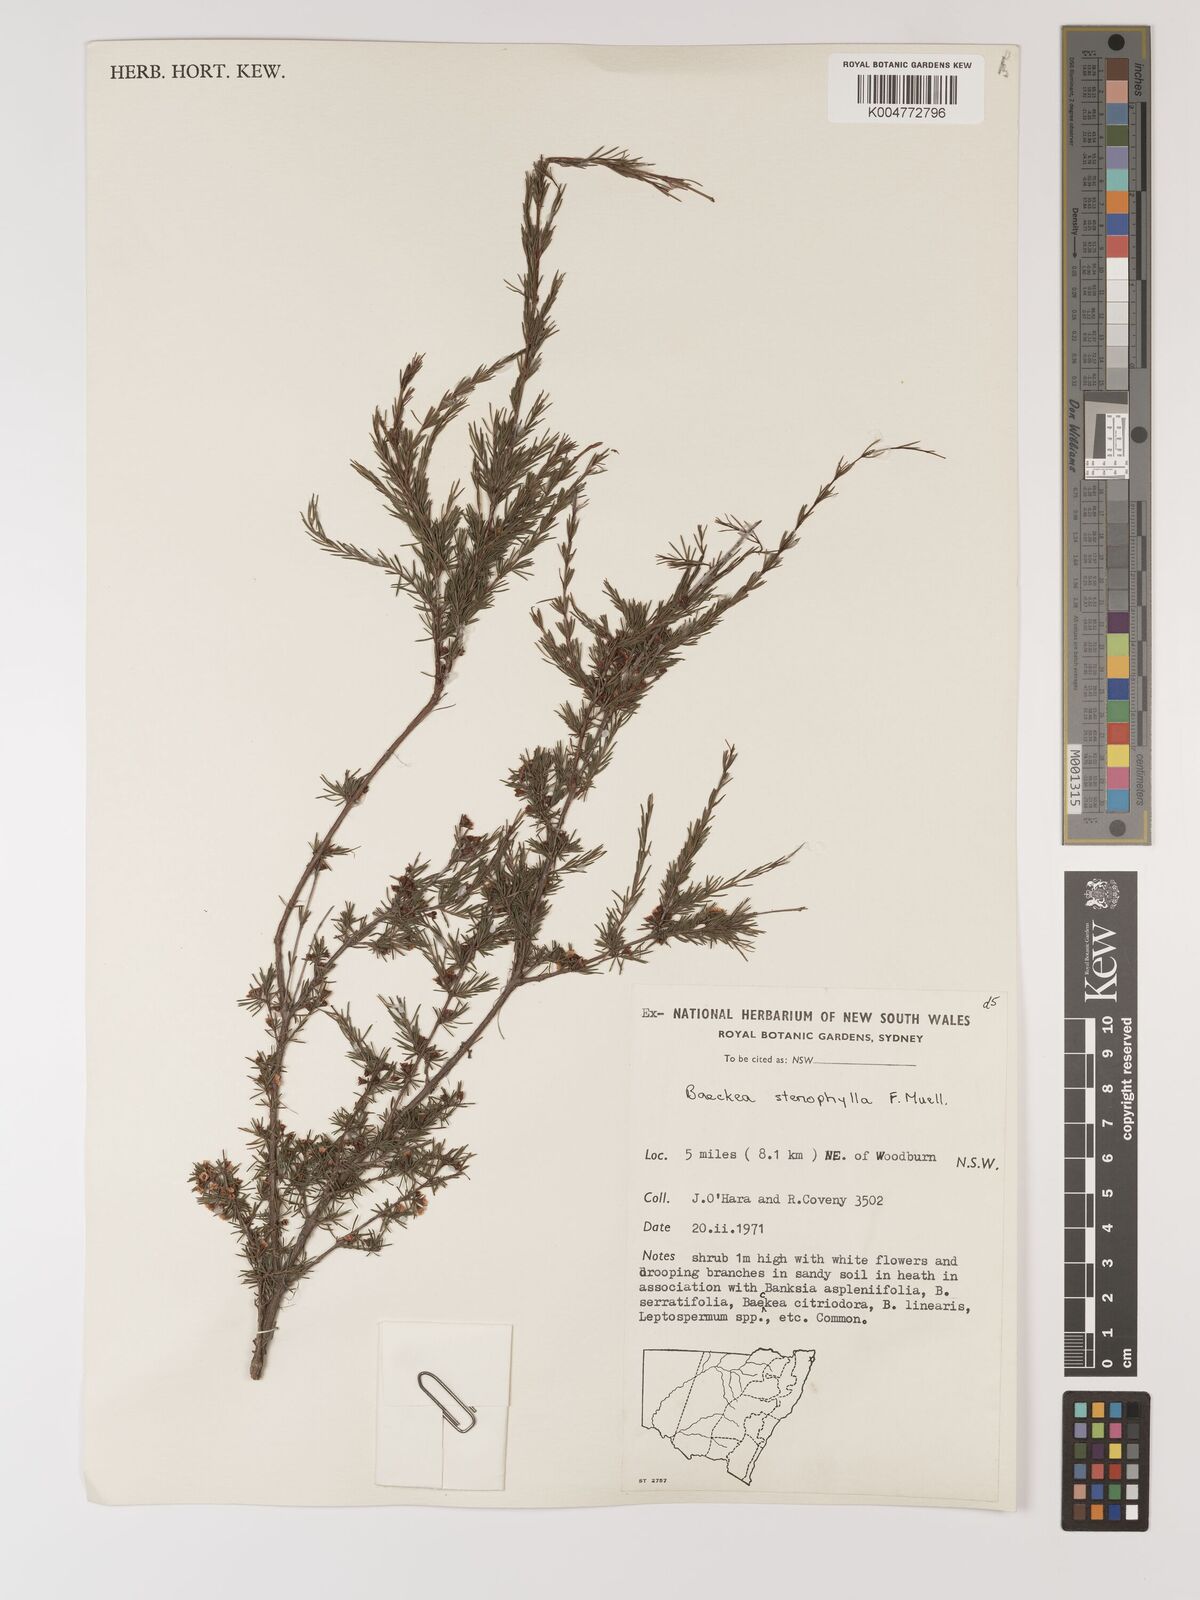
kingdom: Plantae
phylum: Tracheophyta
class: Magnoliopsida
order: Myrtales
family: Myrtaceae
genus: Baeckea
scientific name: Baeckea frutescens
